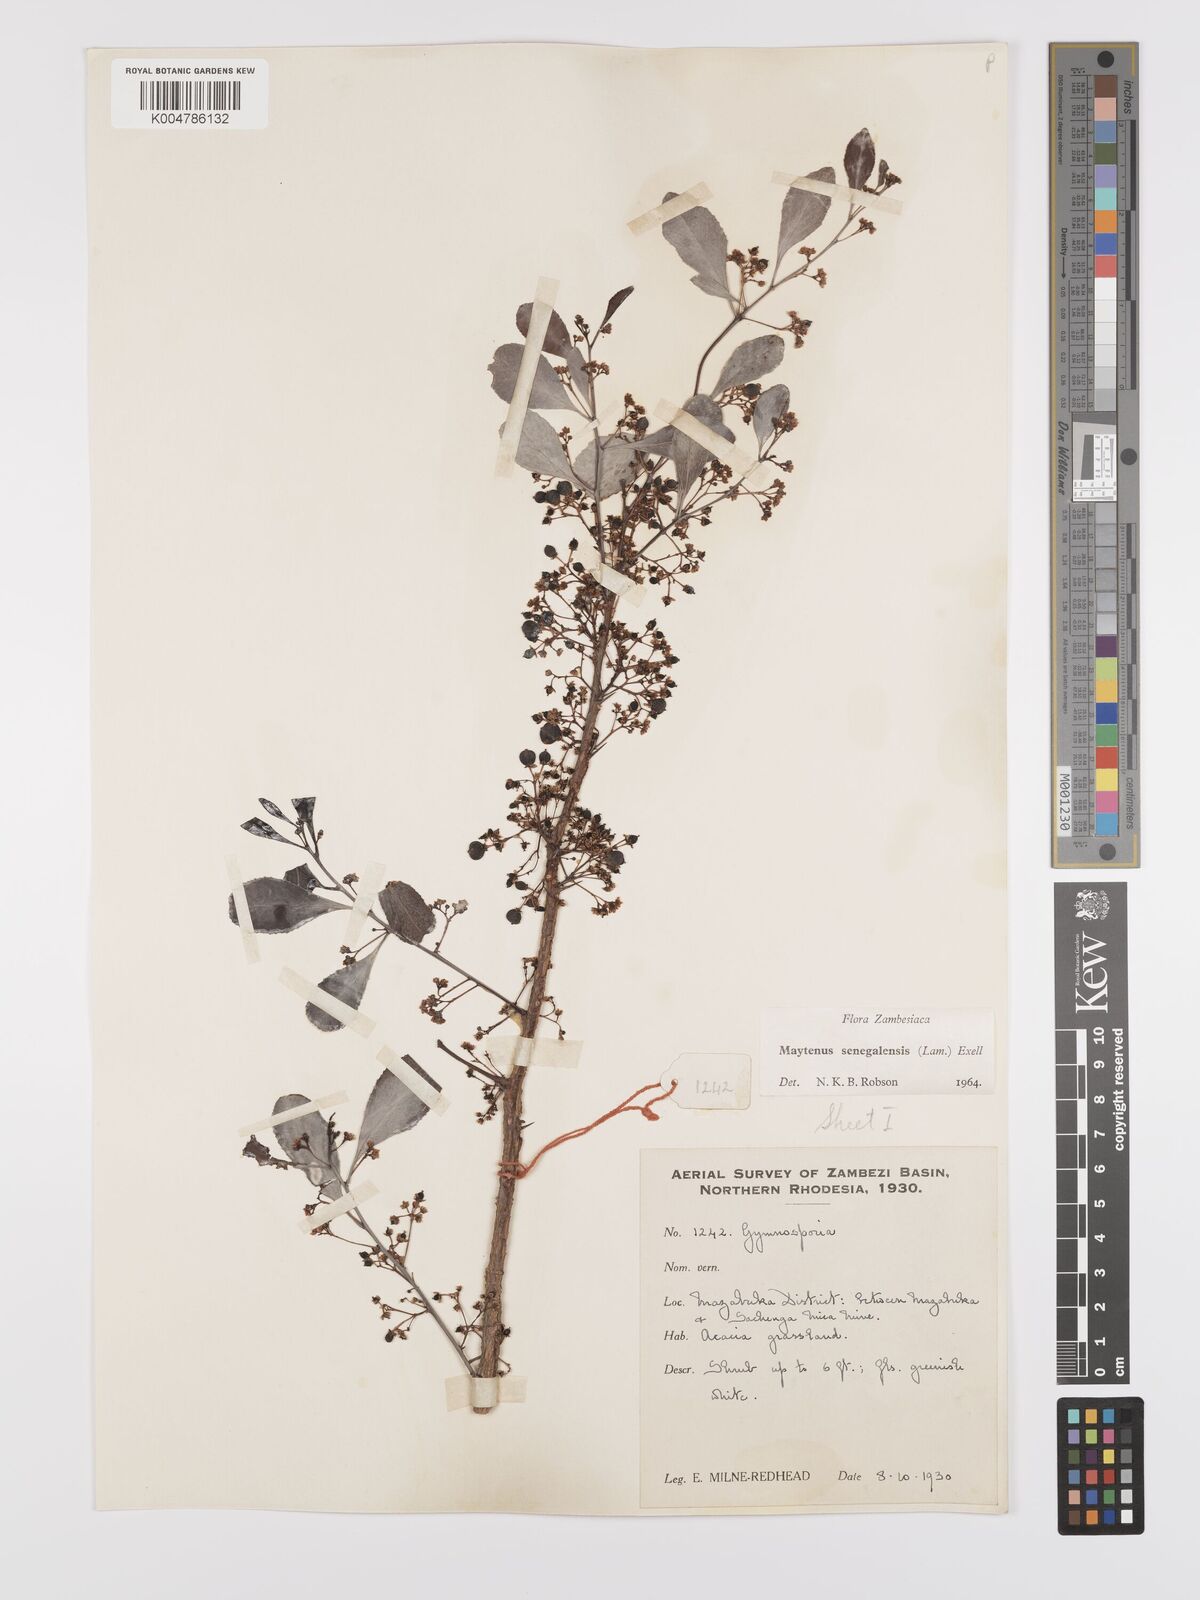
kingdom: Plantae
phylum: Tracheophyta
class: Magnoliopsida
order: Celastrales
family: Celastraceae
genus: Gymnosporia
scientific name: Gymnosporia senegalensis
